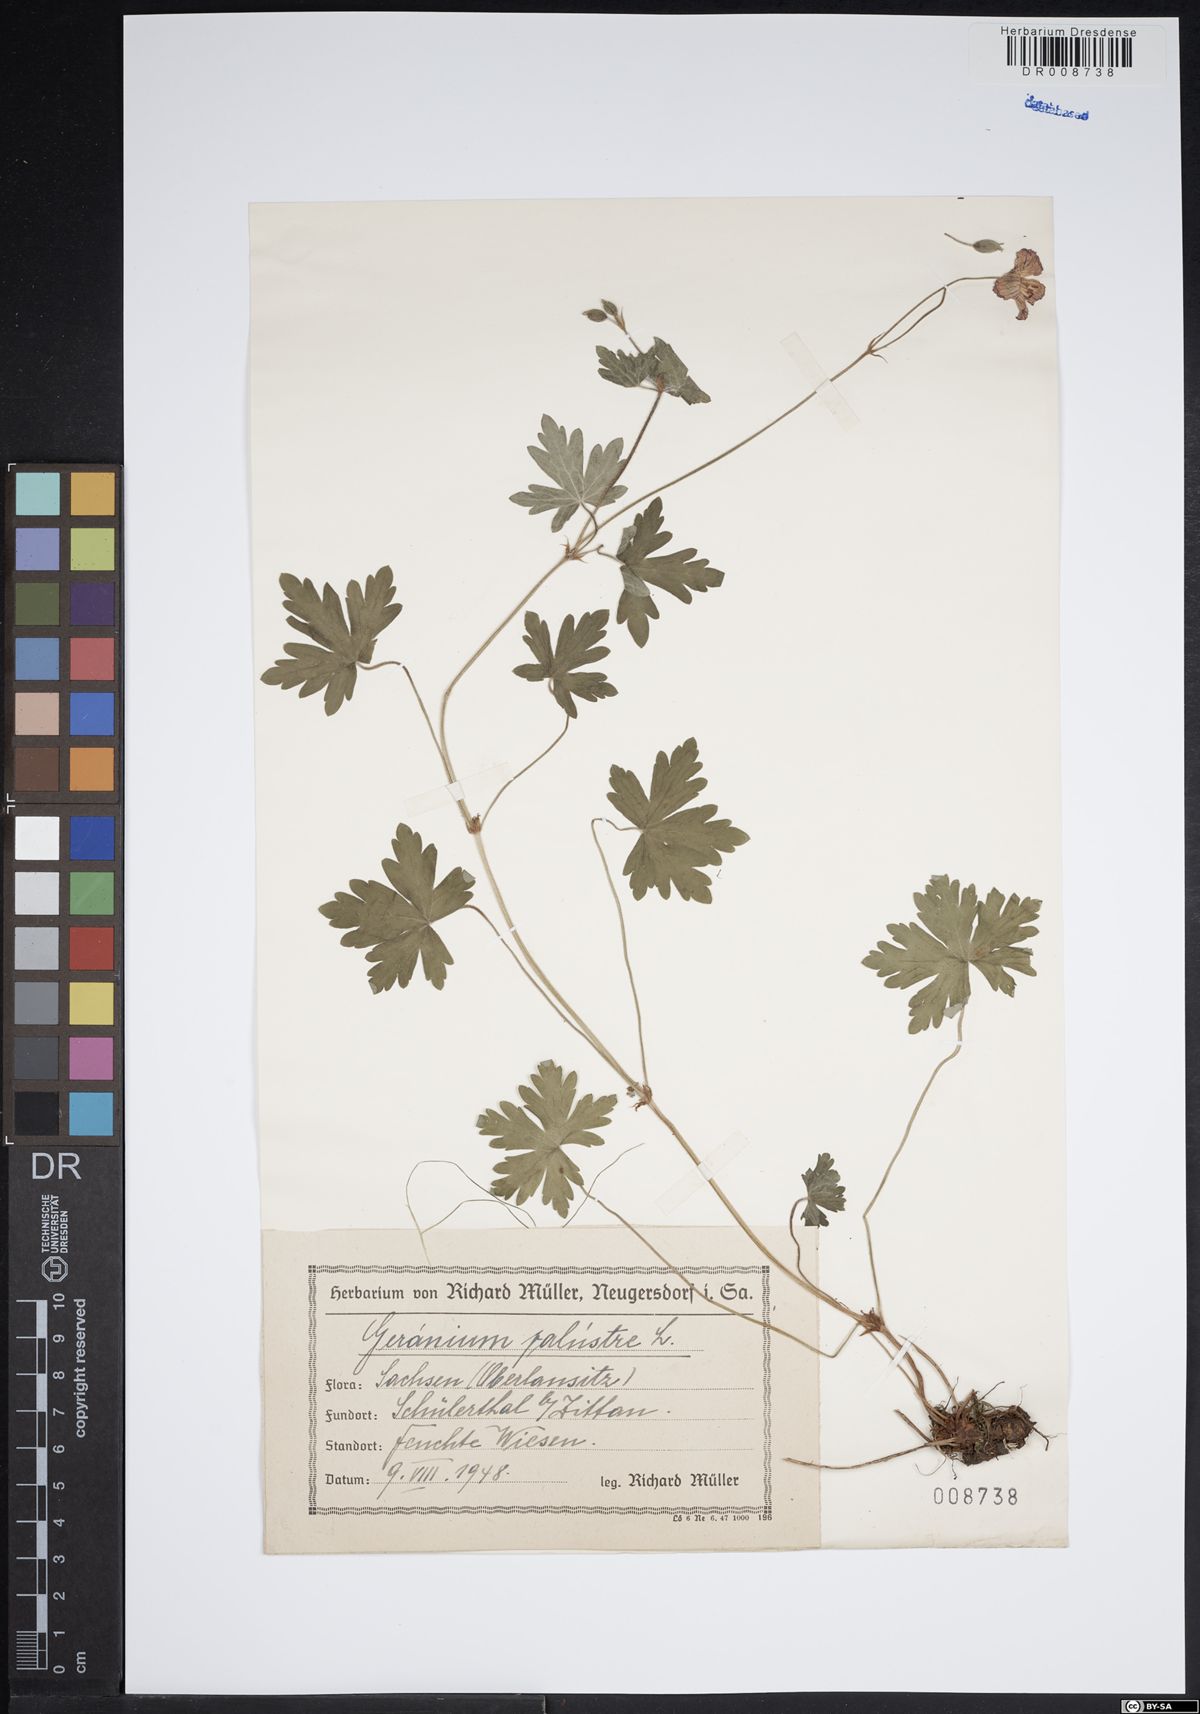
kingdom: Plantae
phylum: Tracheophyta
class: Magnoliopsida
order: Geraniales
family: Geraniaceae
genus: Geranium
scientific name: Geranium palustre
